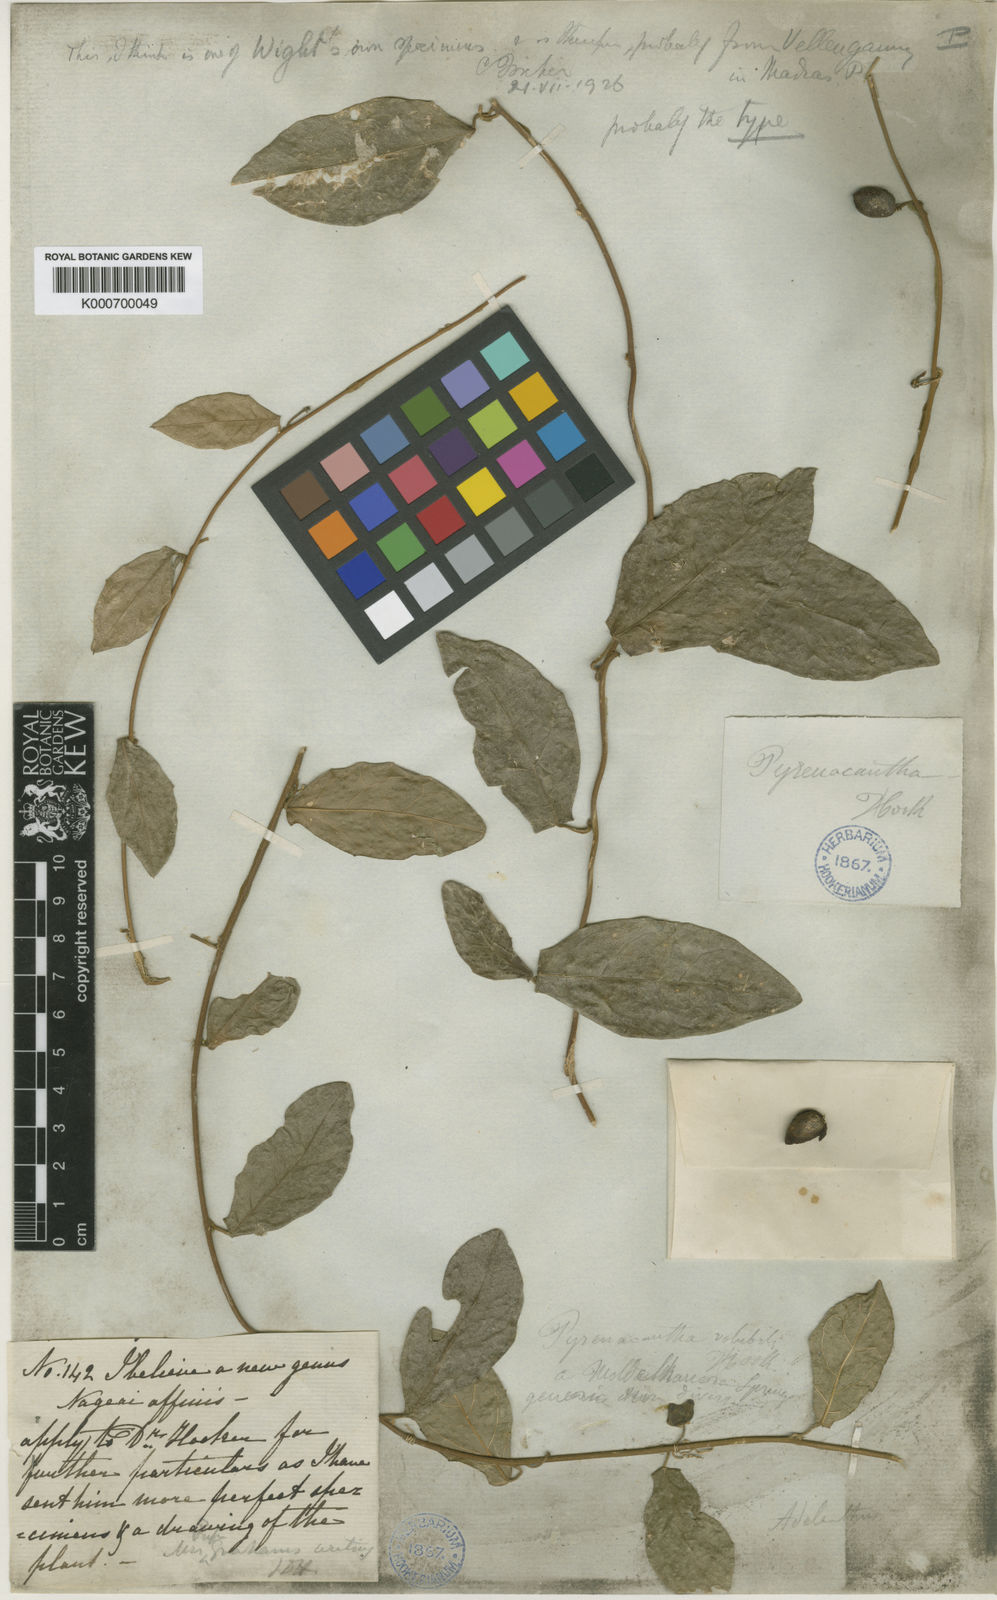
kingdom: Plantae
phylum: Tracheophyta
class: Magnoliopsida
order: Icacinales
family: Icacinaceae
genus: Pyrenacantha
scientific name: Pyrenacantha
